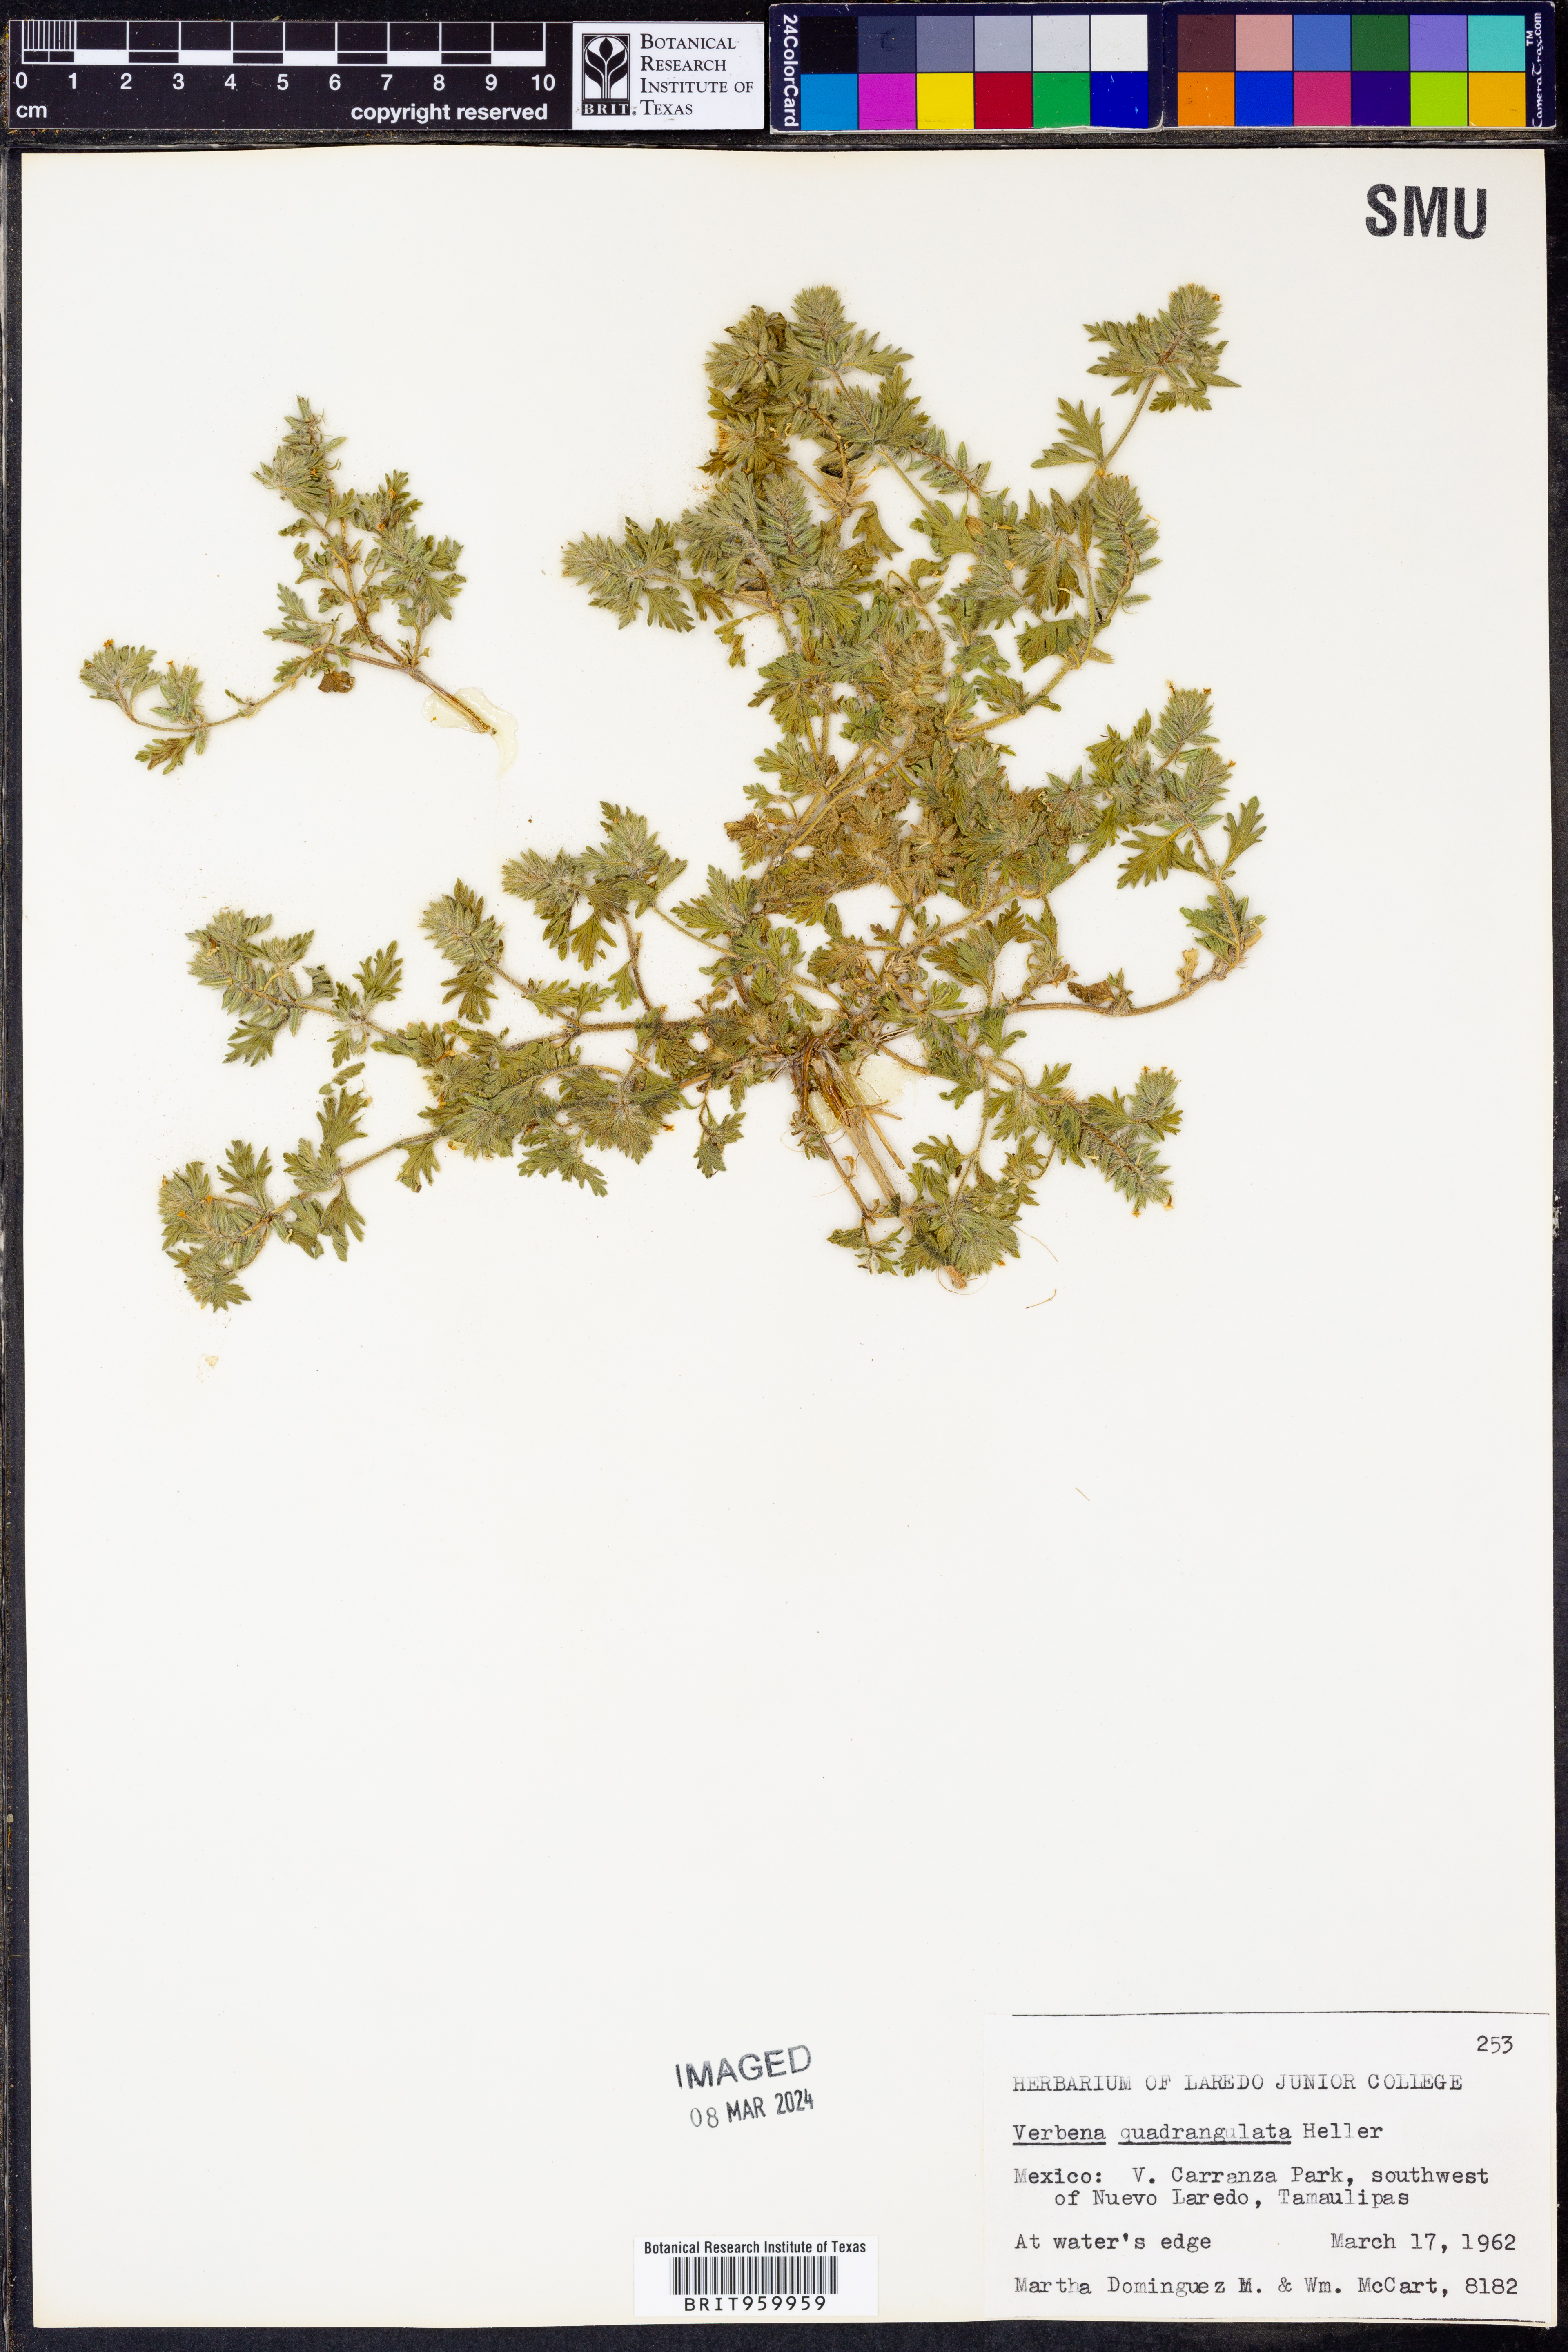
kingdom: Plantae
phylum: Tracheophyta
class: Magnoliopsida
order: Lamiales
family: Verbenaceae
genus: Verbena
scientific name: Verbena quadrangulata
